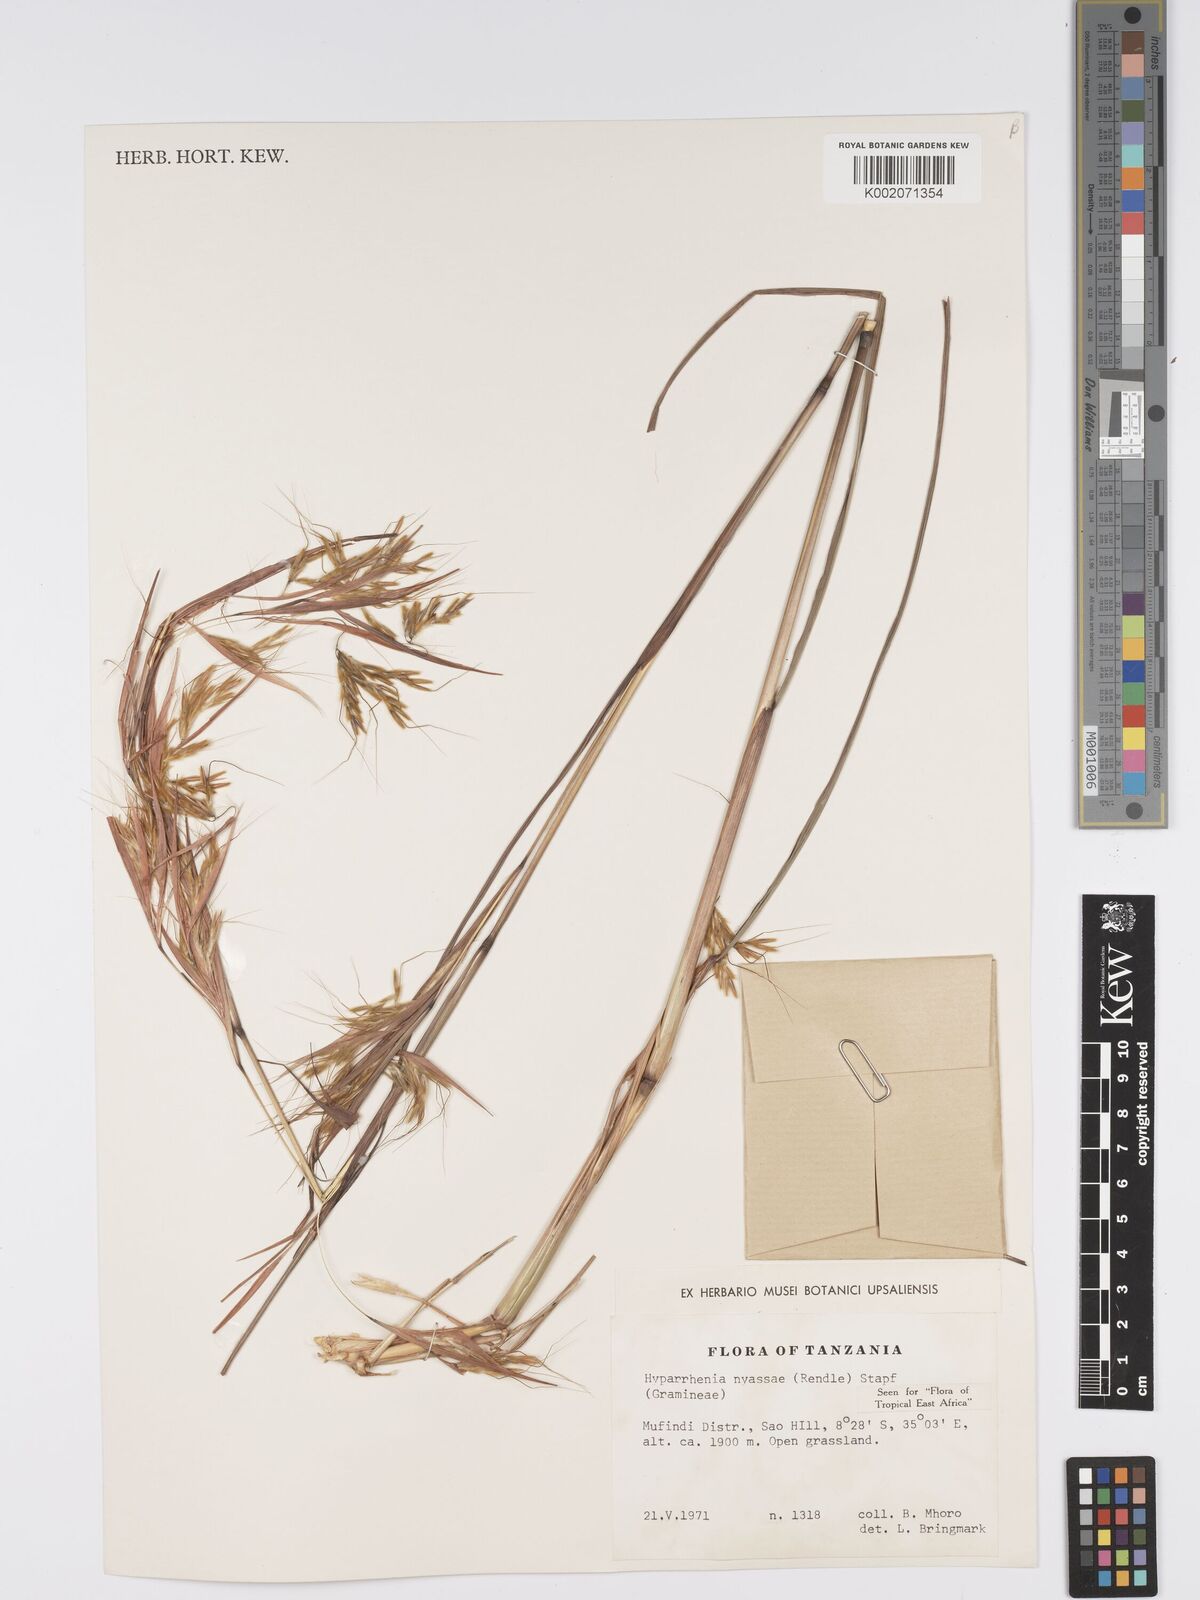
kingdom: Plantae
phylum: Tracheophyta
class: Liliopsida
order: Poales
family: Poaceae
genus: Hyparrhenia
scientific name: Hyparrhenia nyassae
